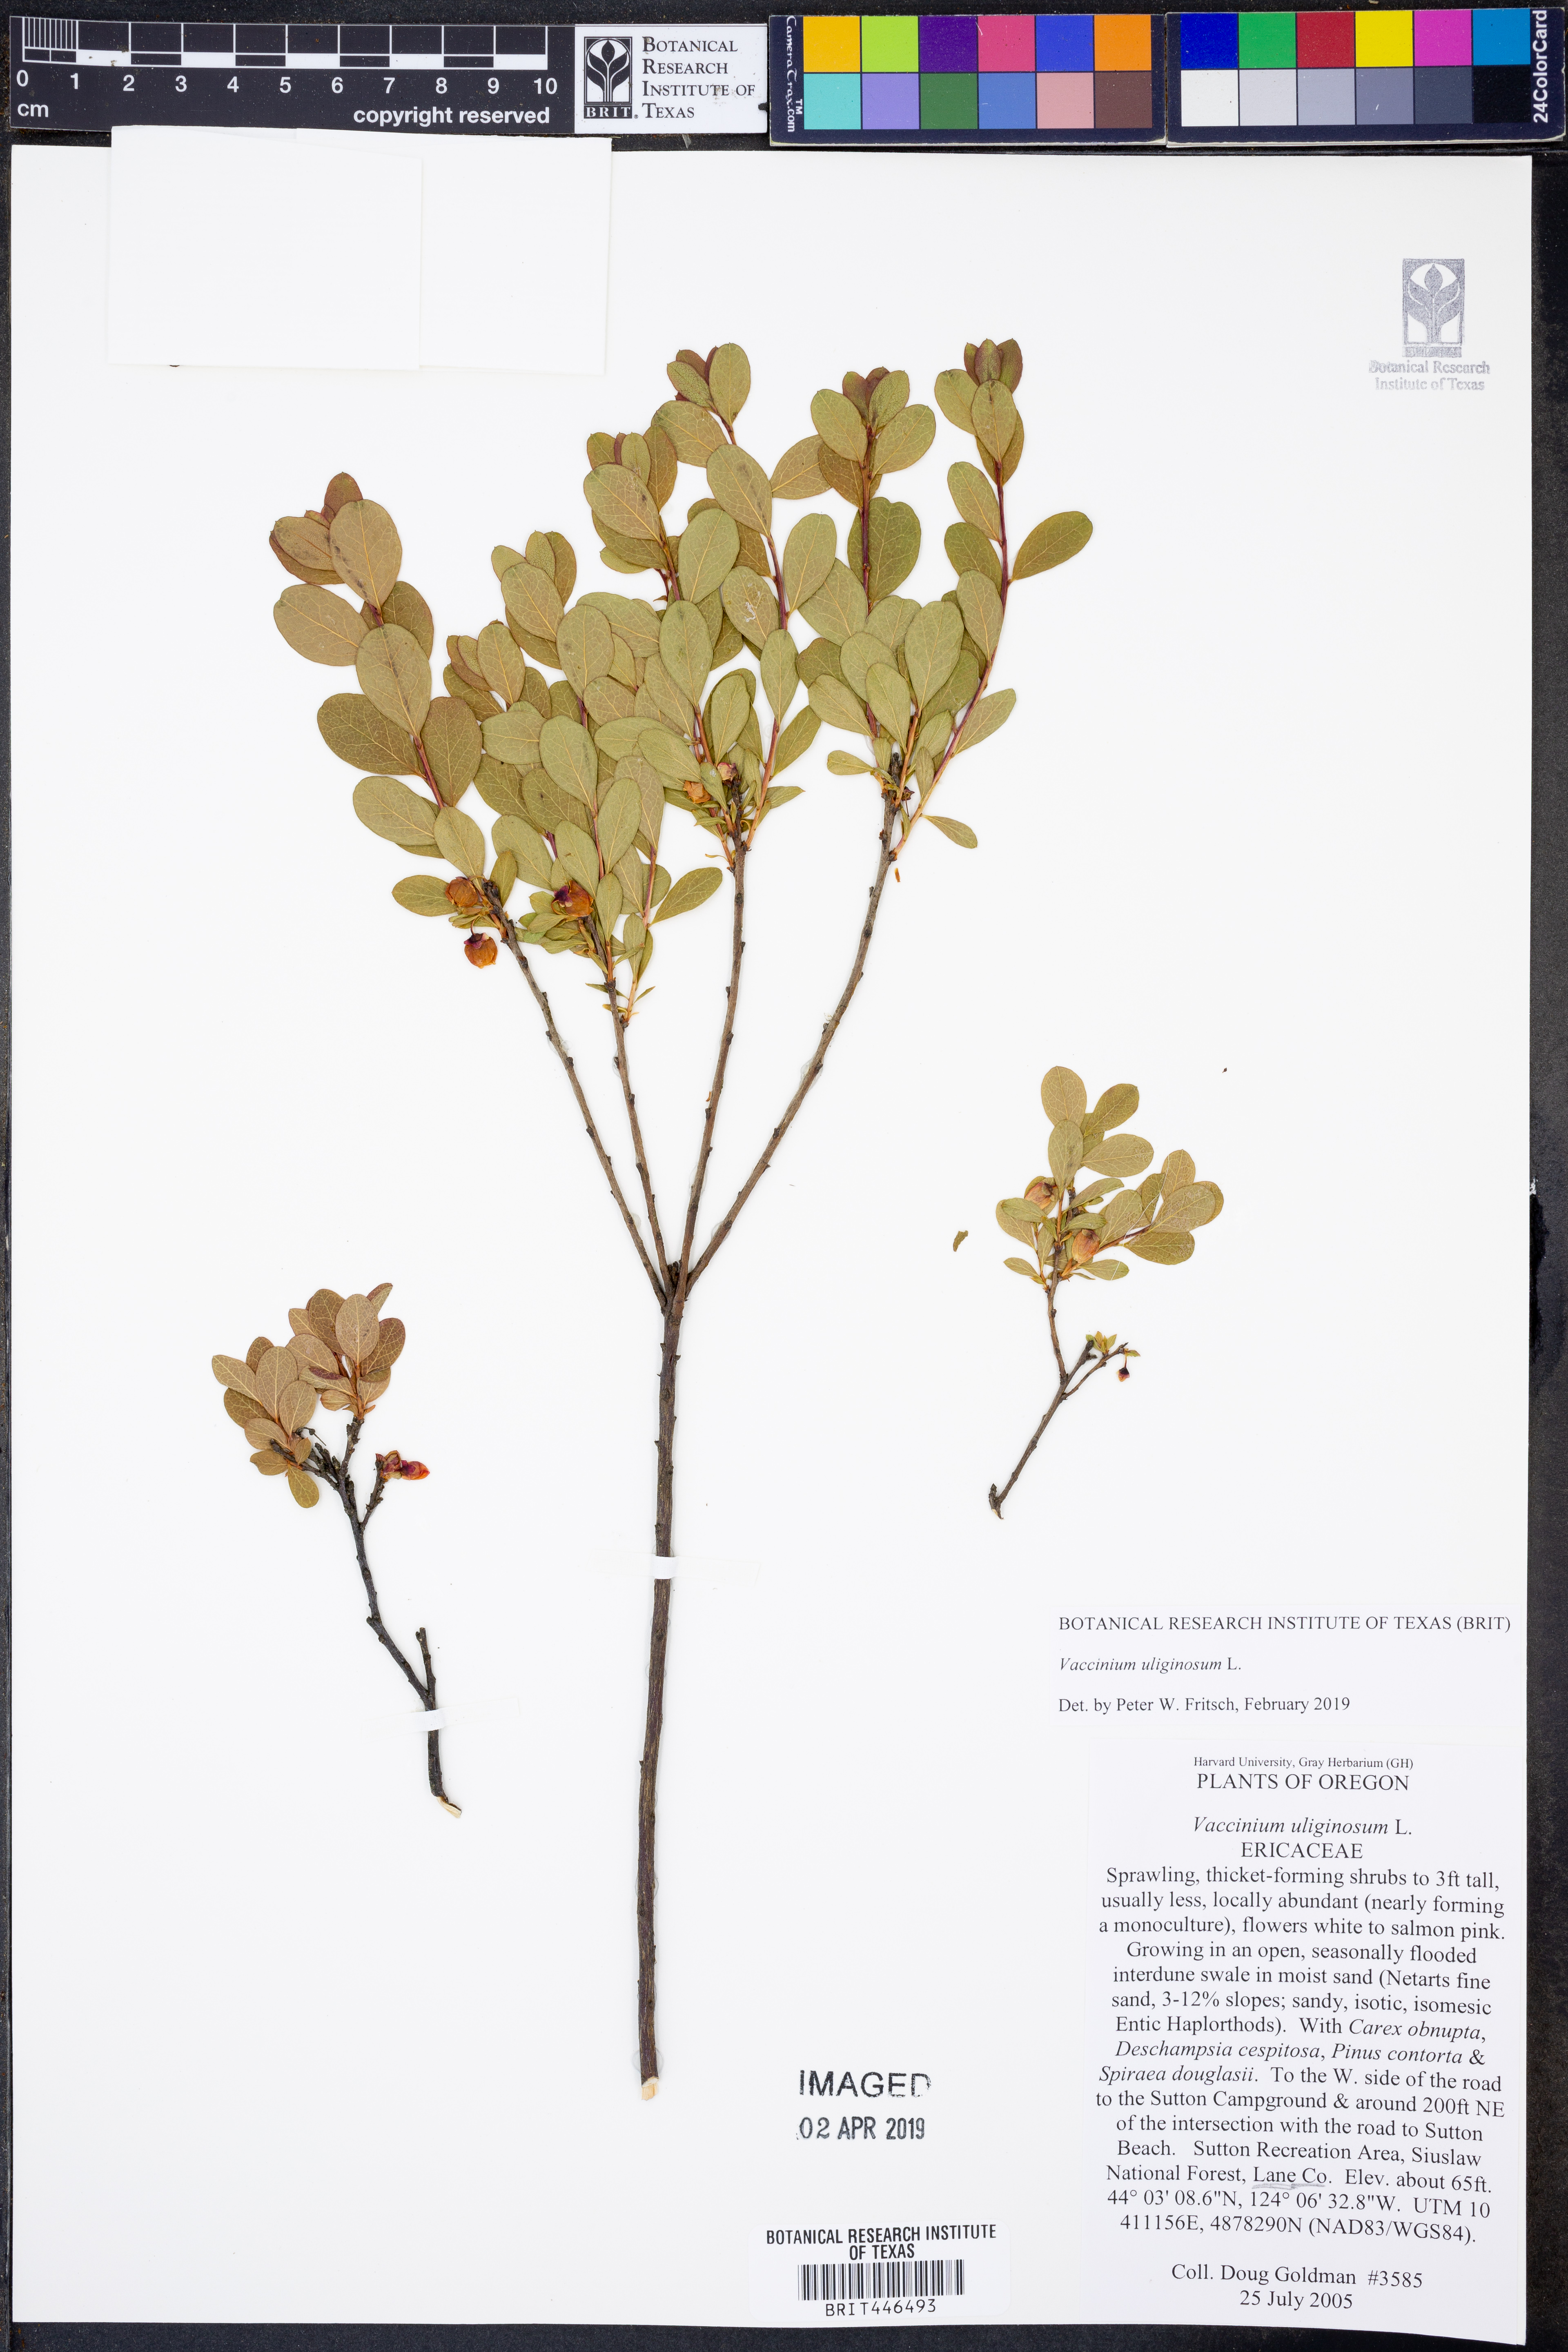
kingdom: Plantae
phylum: Tracheophyta
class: Magnoliopsida
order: Ericales
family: Ericaceae
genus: Vaccinium
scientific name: Vaccinium uliginosum
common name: Bog bilberry
